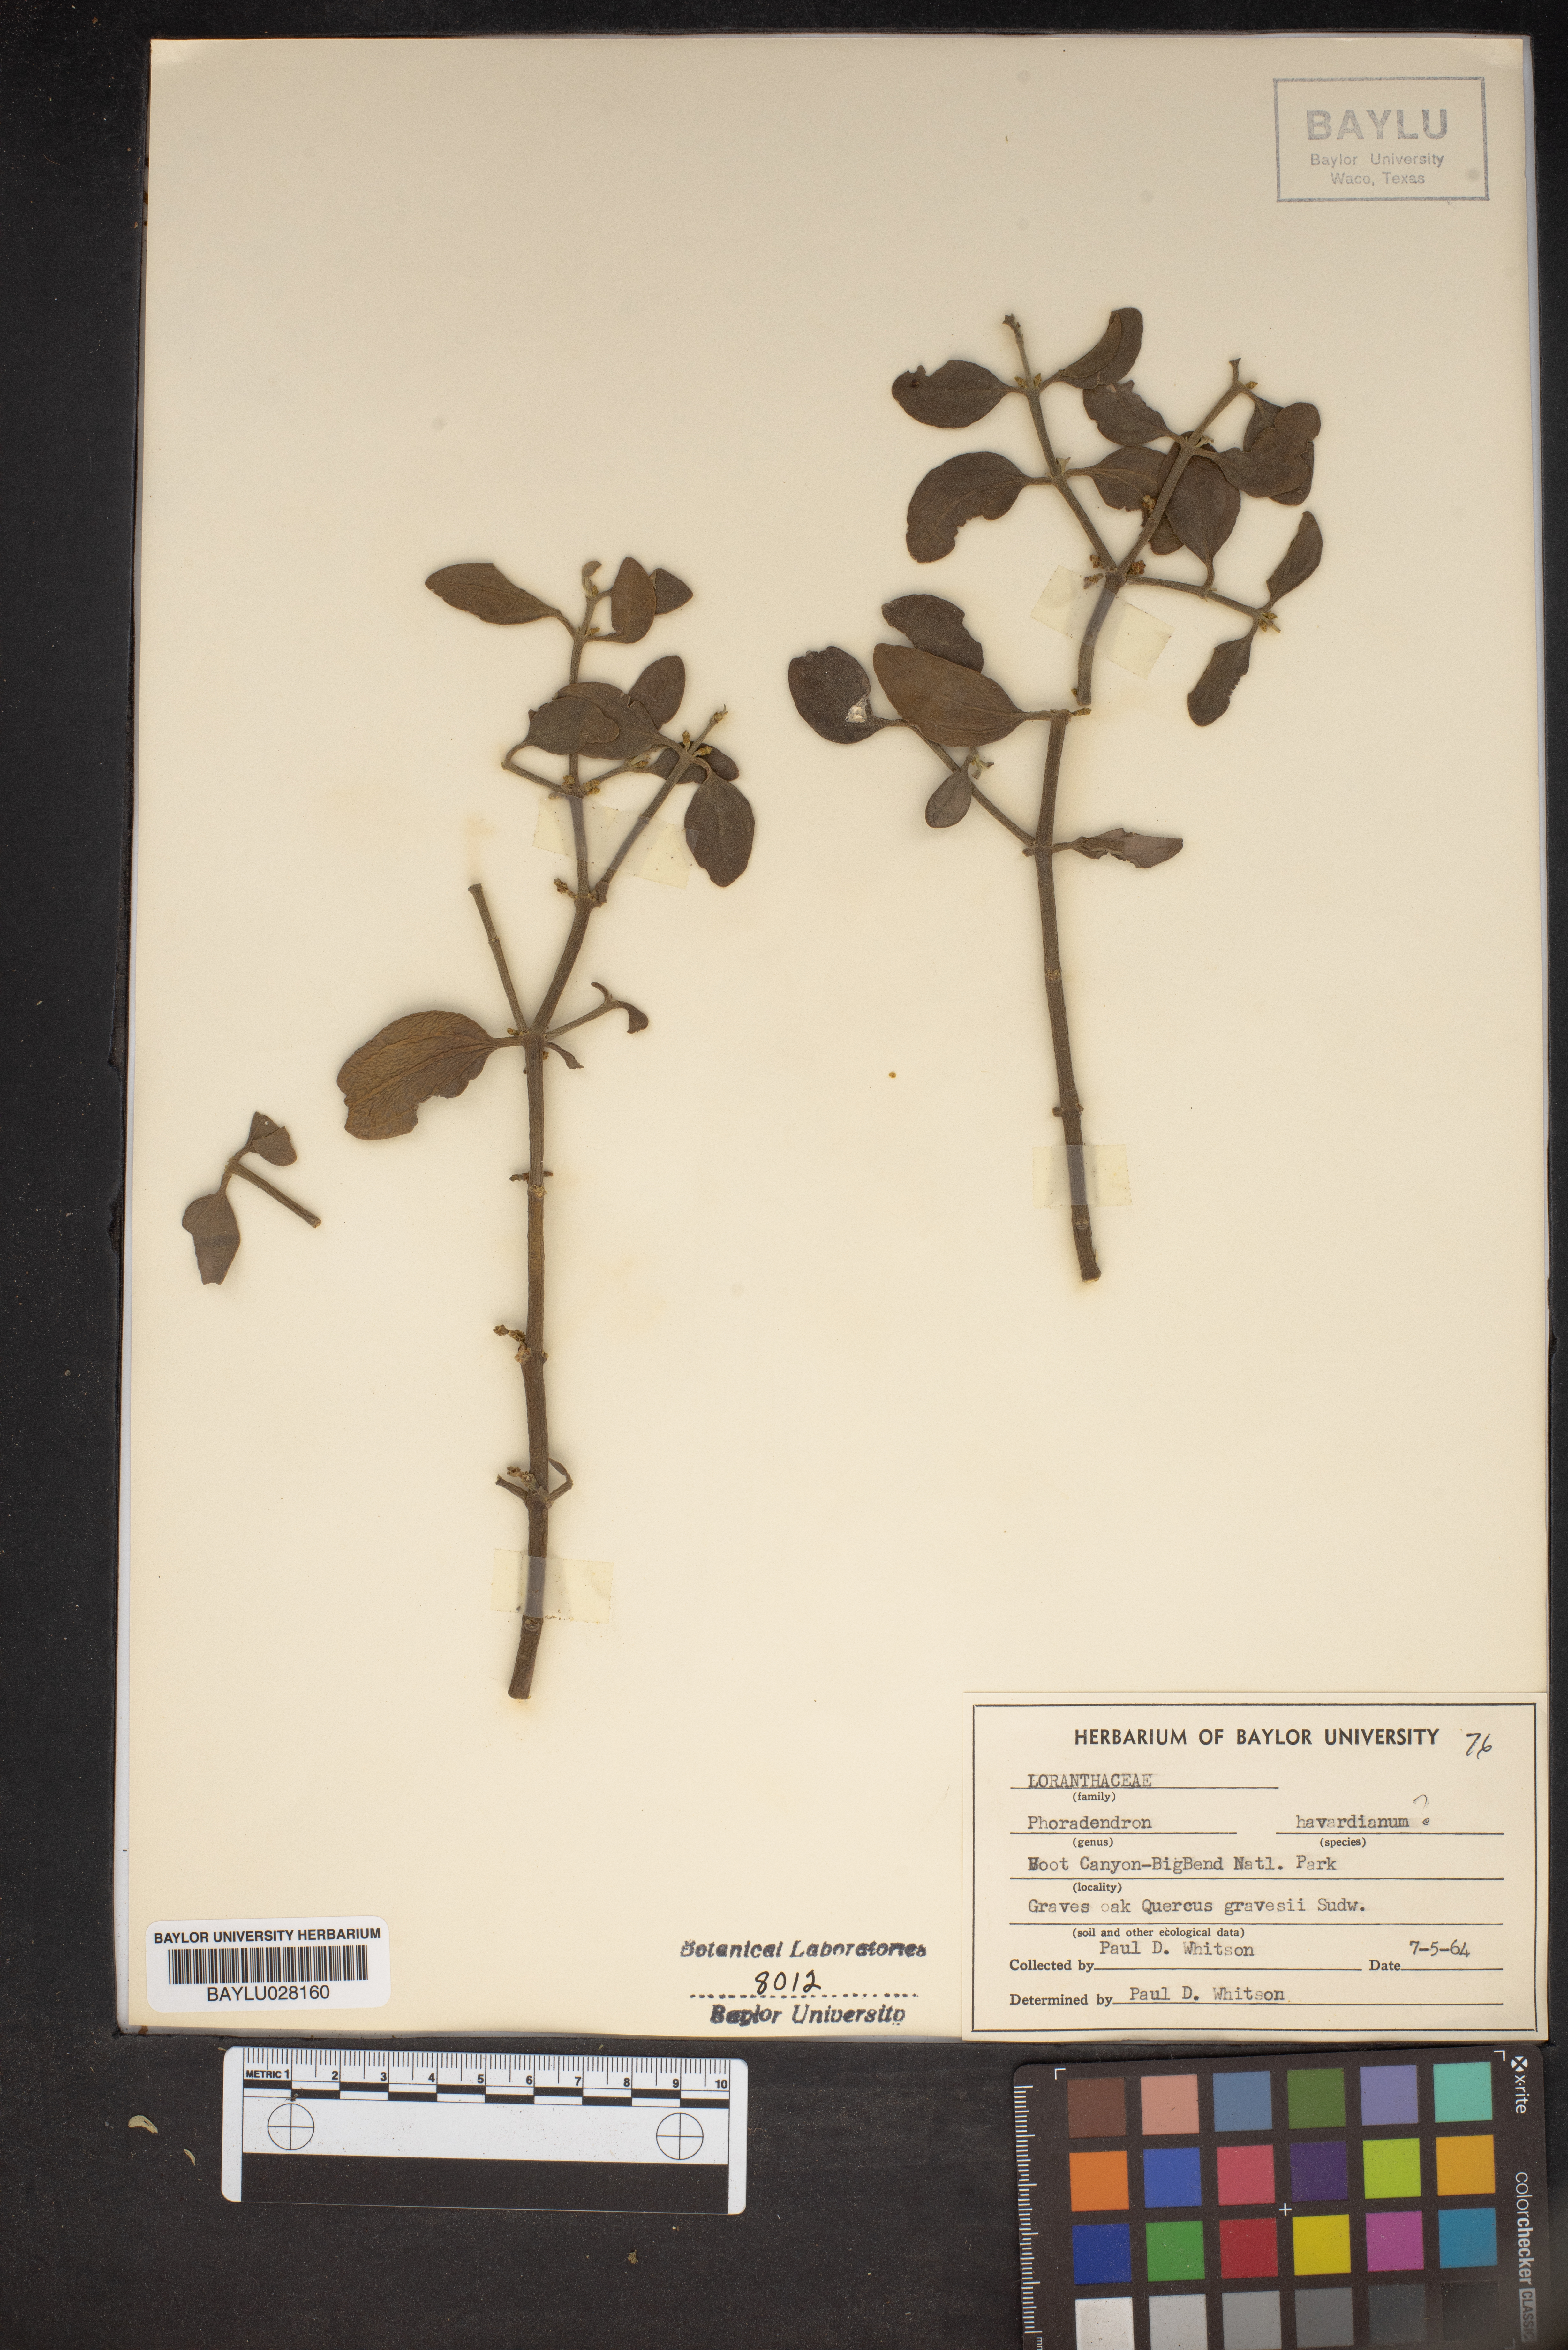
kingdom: Plantae
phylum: Tracheophyta
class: Magnoliopsida
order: Santalales
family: Viscaceae
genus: Phoradendron
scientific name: Phoradendron coryae
